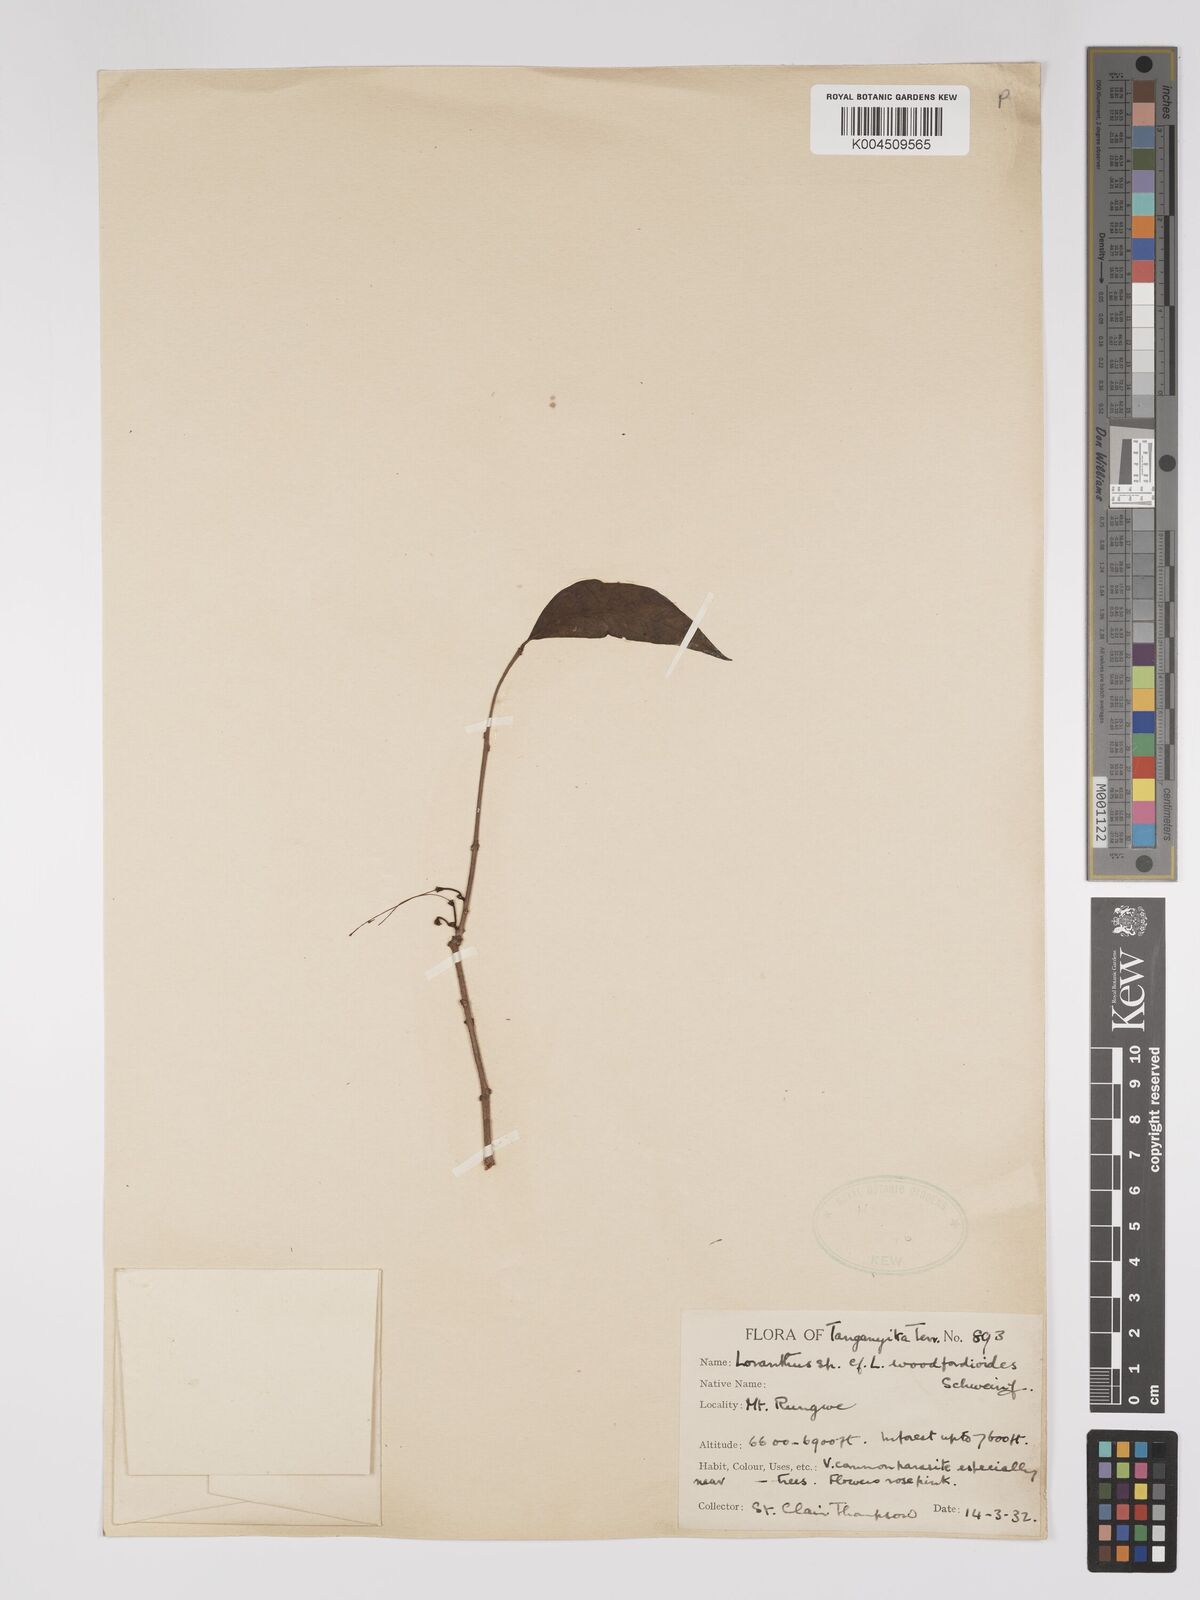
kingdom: Plantae
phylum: Tracheophyta
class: Magnoliopsida
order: Santalales
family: Loranthaceae
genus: Englerina
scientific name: Englerina inaequilatera
